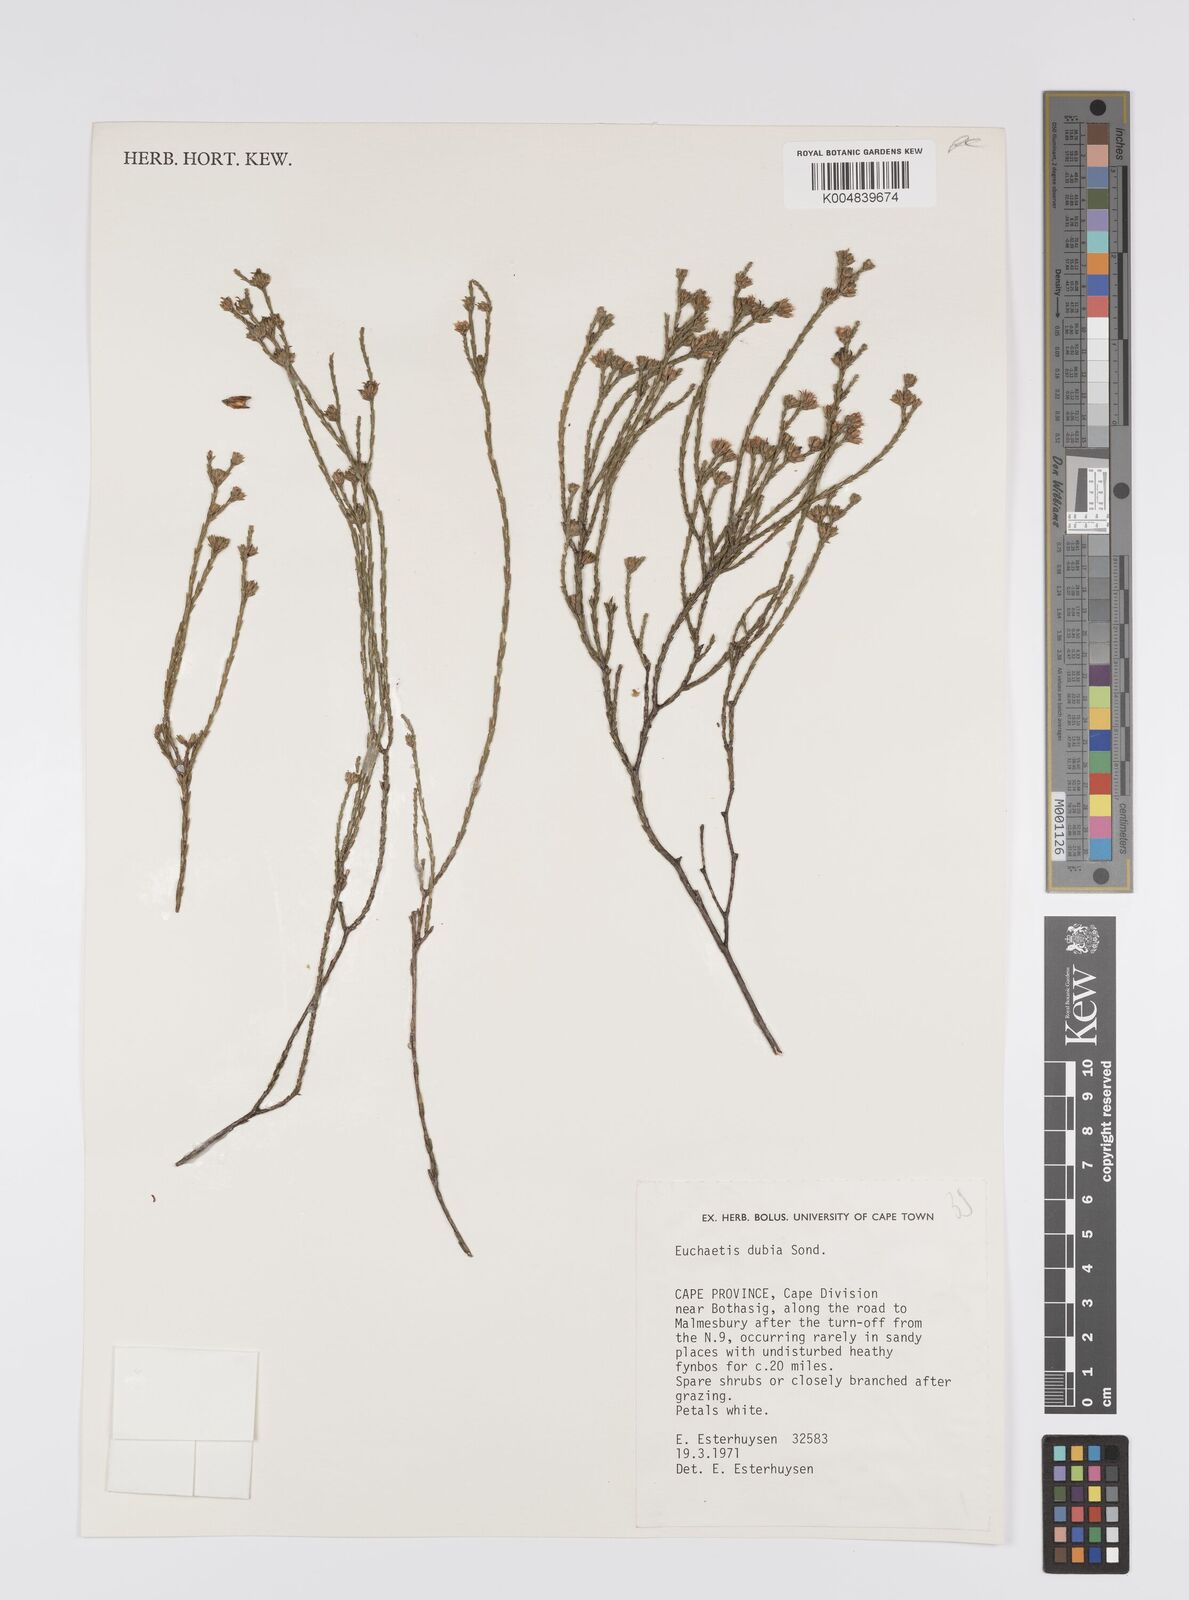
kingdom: Plantae
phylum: Tracheophyta
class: Magnoliopsida
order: Sapindales
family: Rutaceae
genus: Macrostylis
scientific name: Macrostylis cassiopoides
